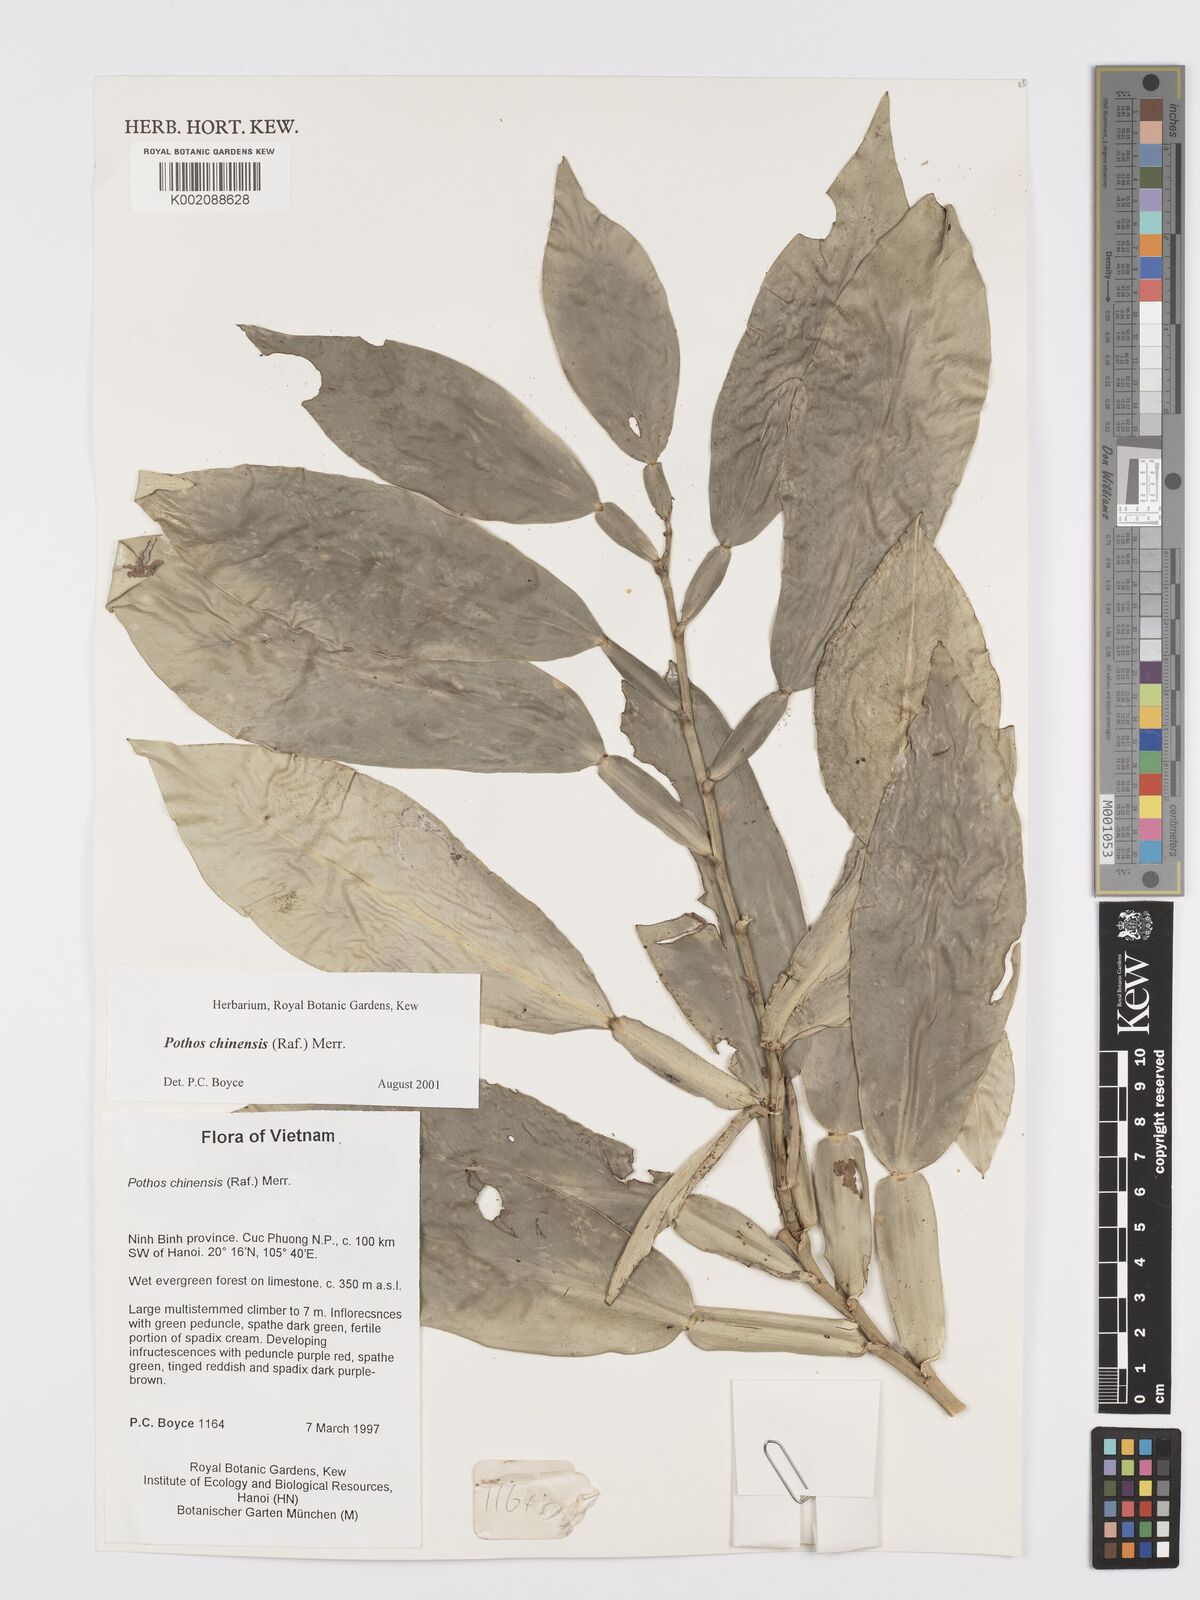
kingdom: Plantae
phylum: Tracheophyta
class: Liliopsida
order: Alismatales
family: Araceae
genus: Pothos
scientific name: Pothos chinensis
